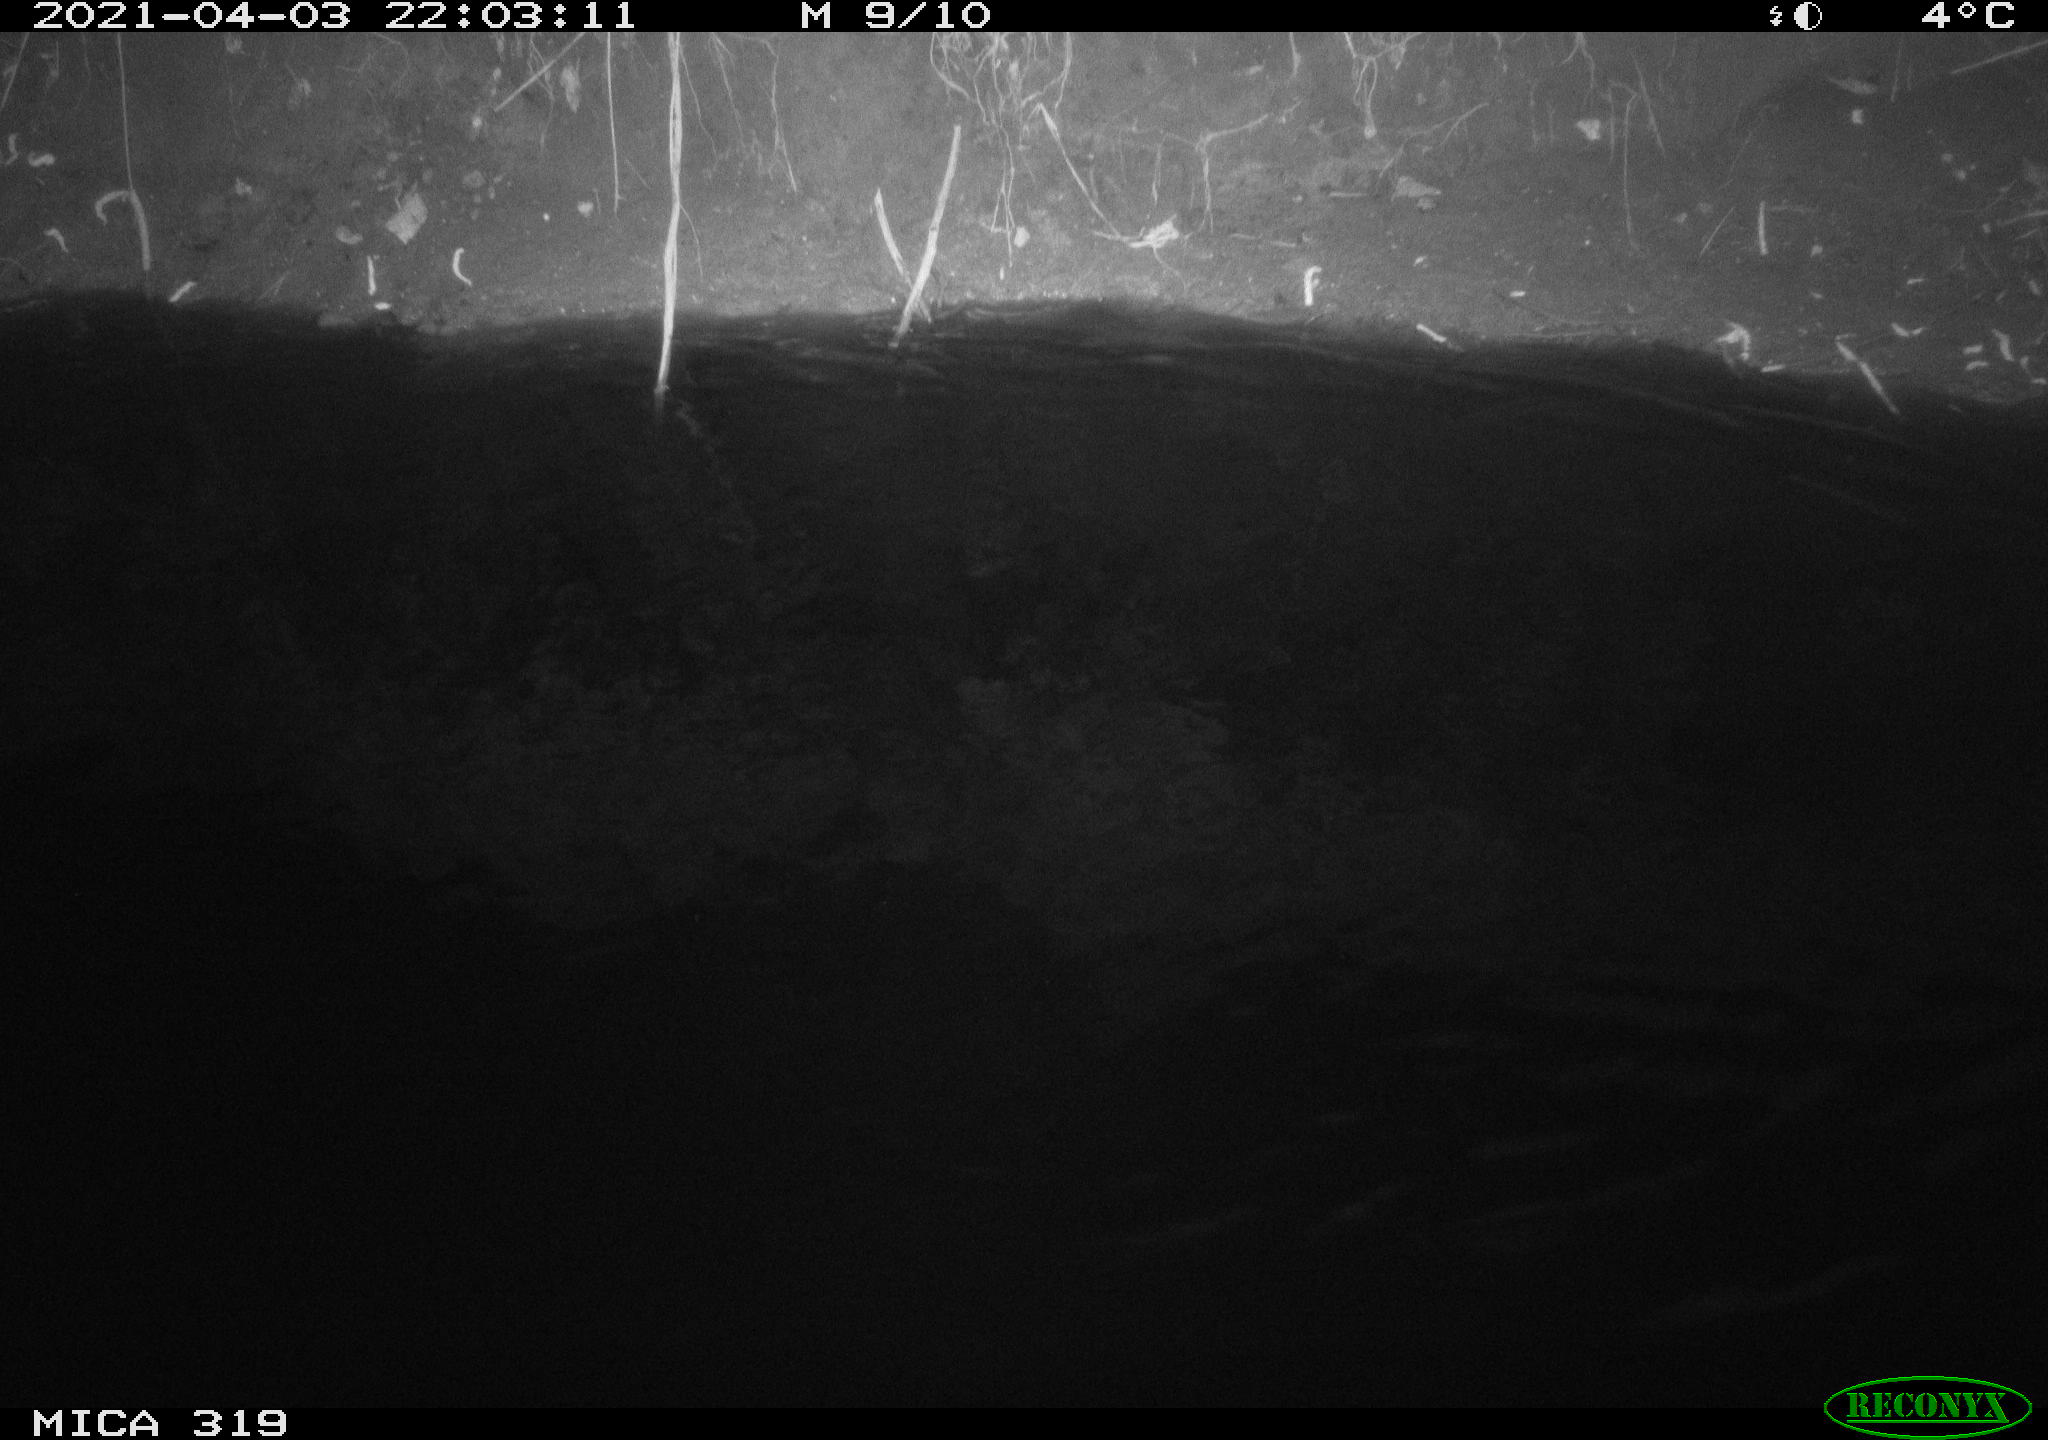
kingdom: Animalia
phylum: Chordata
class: Aves
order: Anseriformes
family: Anatidae
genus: Anas
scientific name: Anas platyrhynchos
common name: Mallard
